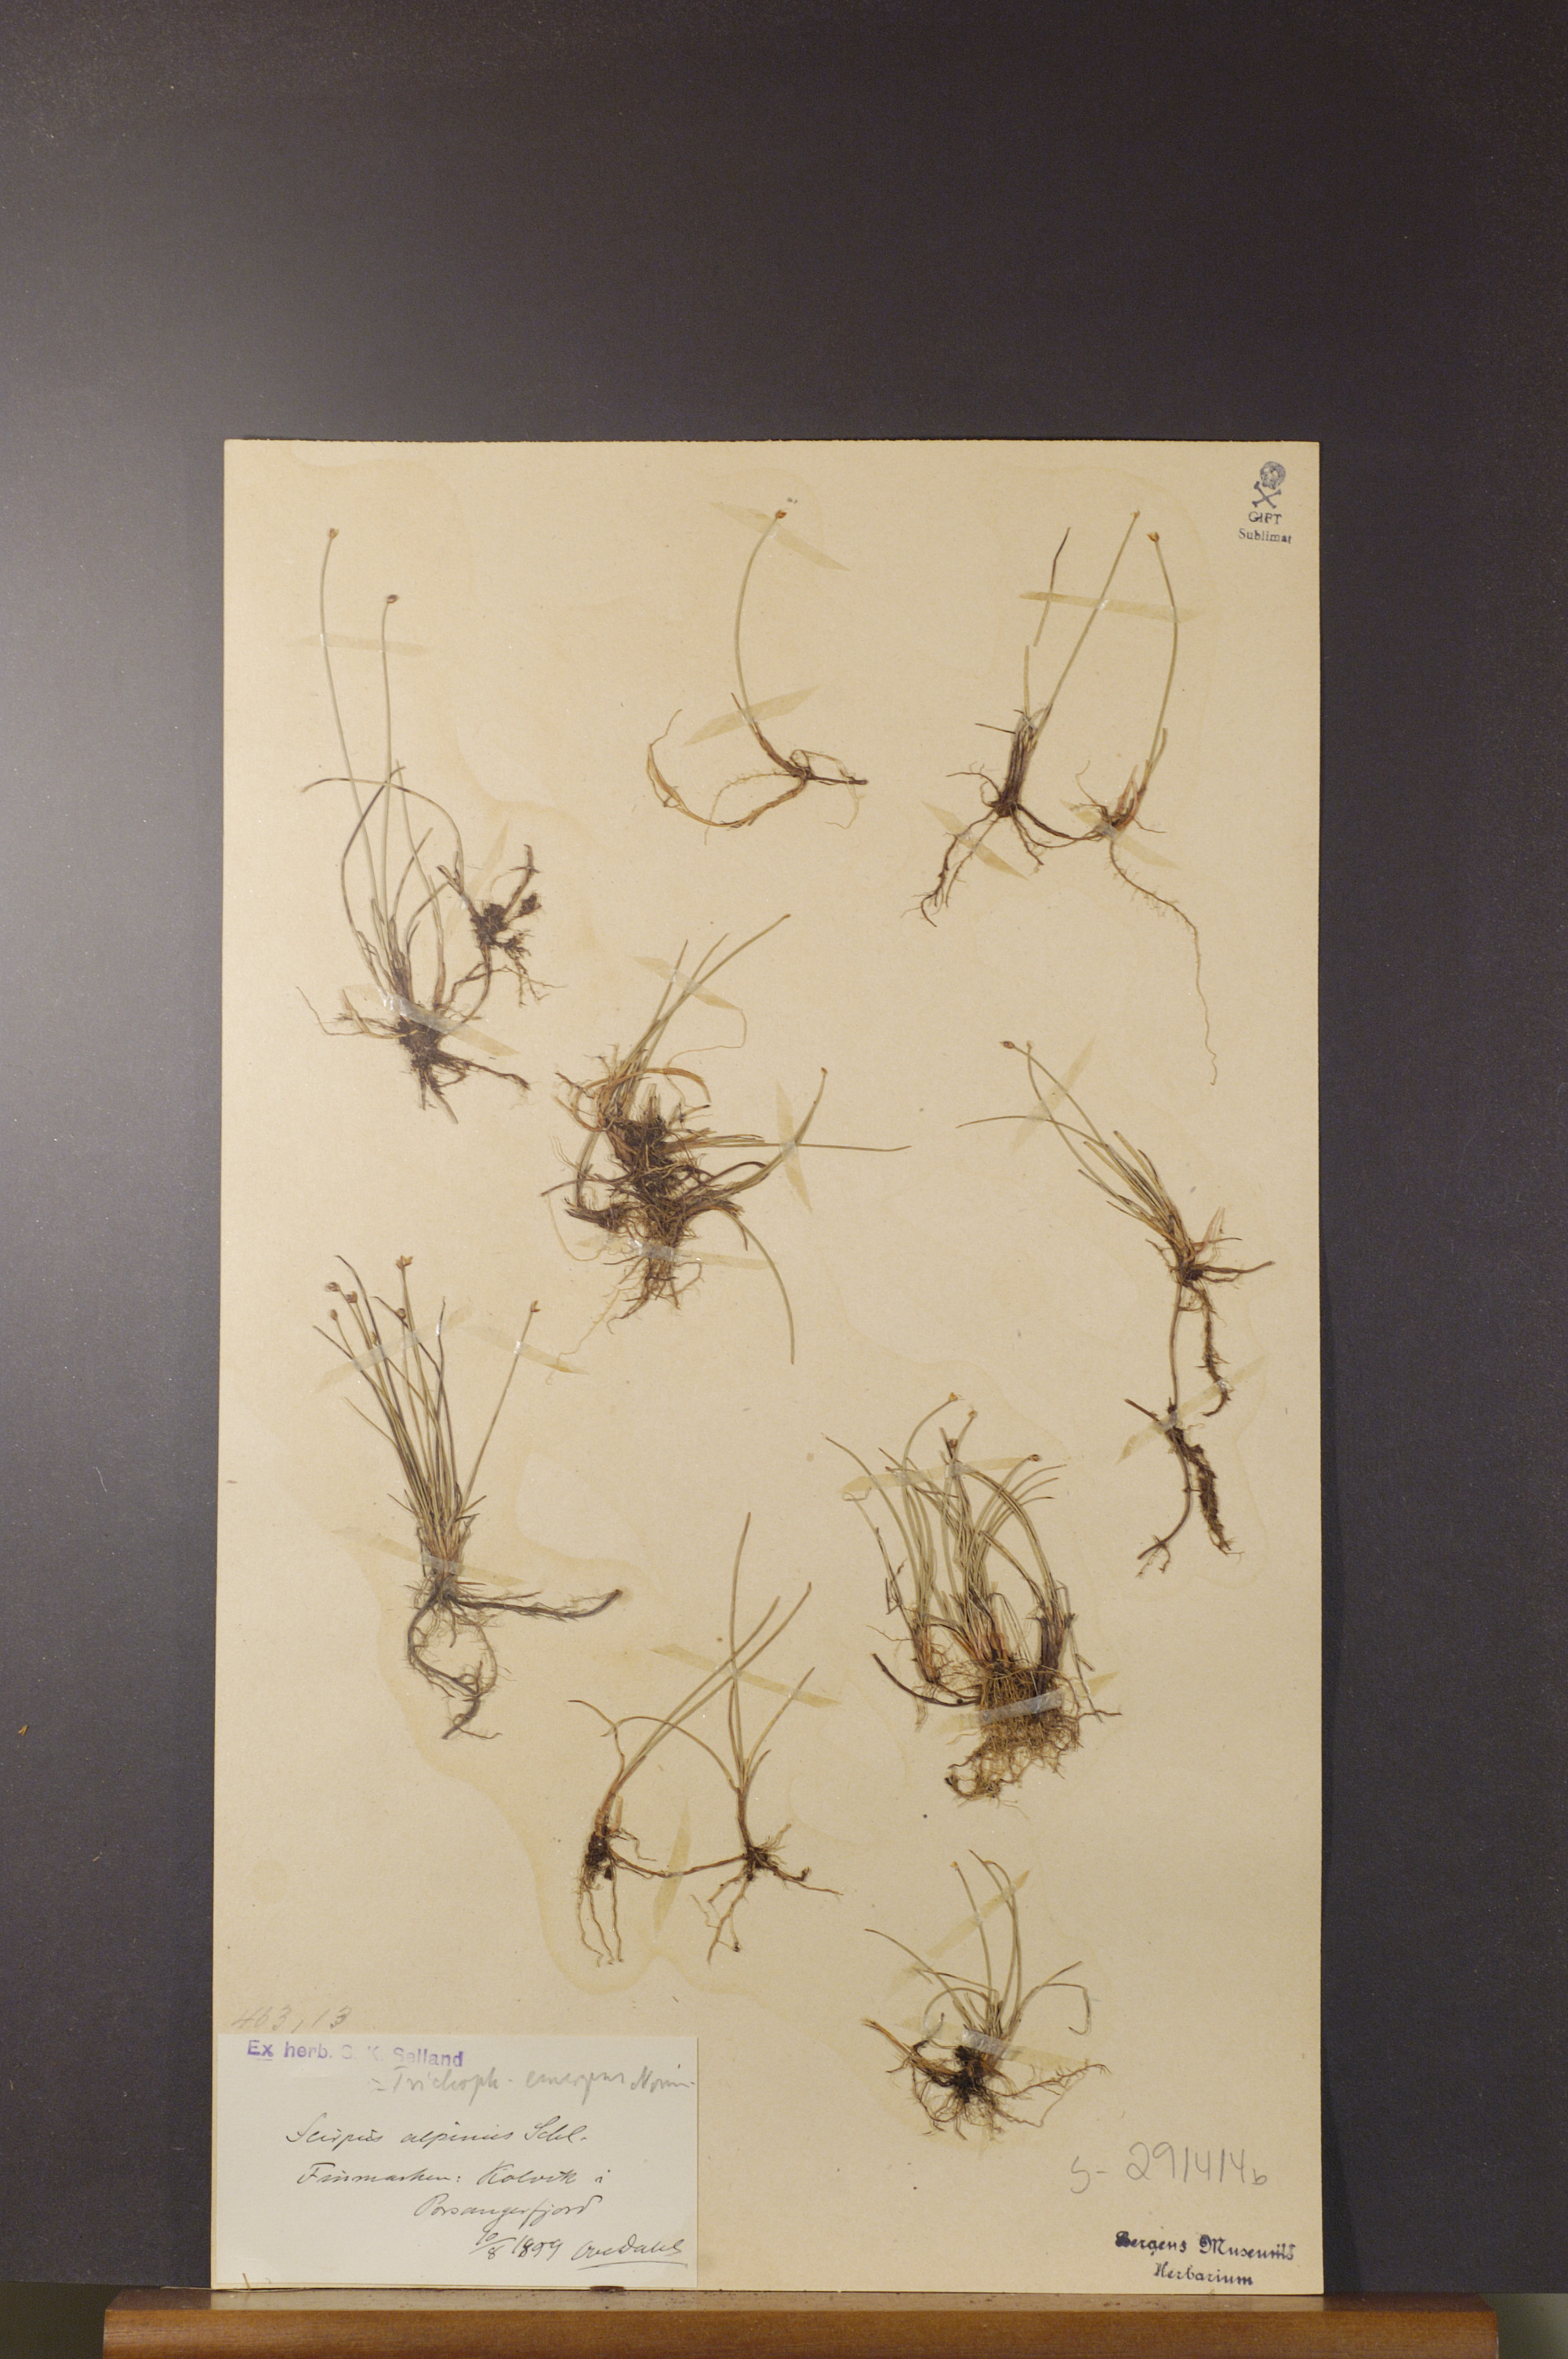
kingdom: Plantae
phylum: Tracheophyta
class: Liliopsida
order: Poales
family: Cyperaceae
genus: Trichophorum
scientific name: Trichophorum pumilum
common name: Rolland's bulrush
